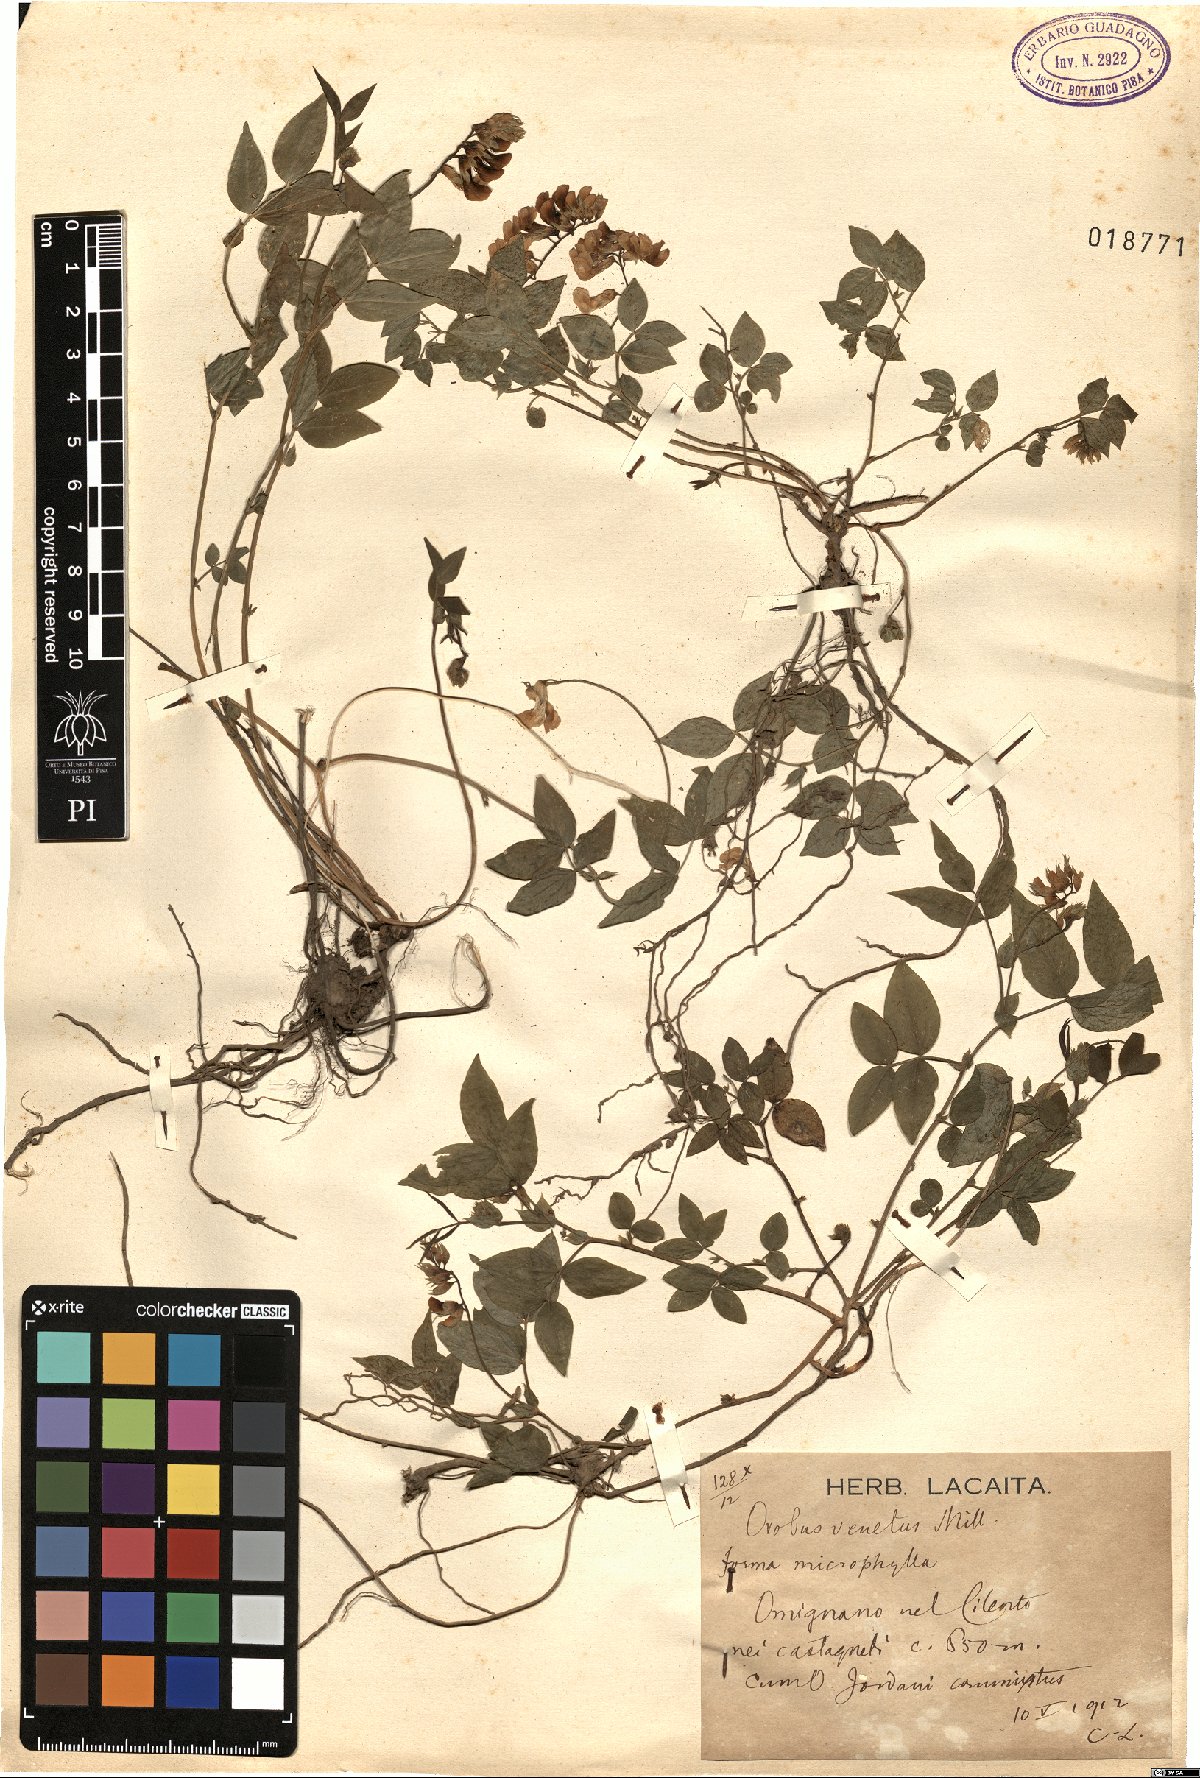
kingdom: Plantae
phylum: Tracheophyta
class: Magnoliopsida
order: Fabales
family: Fabaceae
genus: Lathyrus
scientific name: Lathyrus venetus
